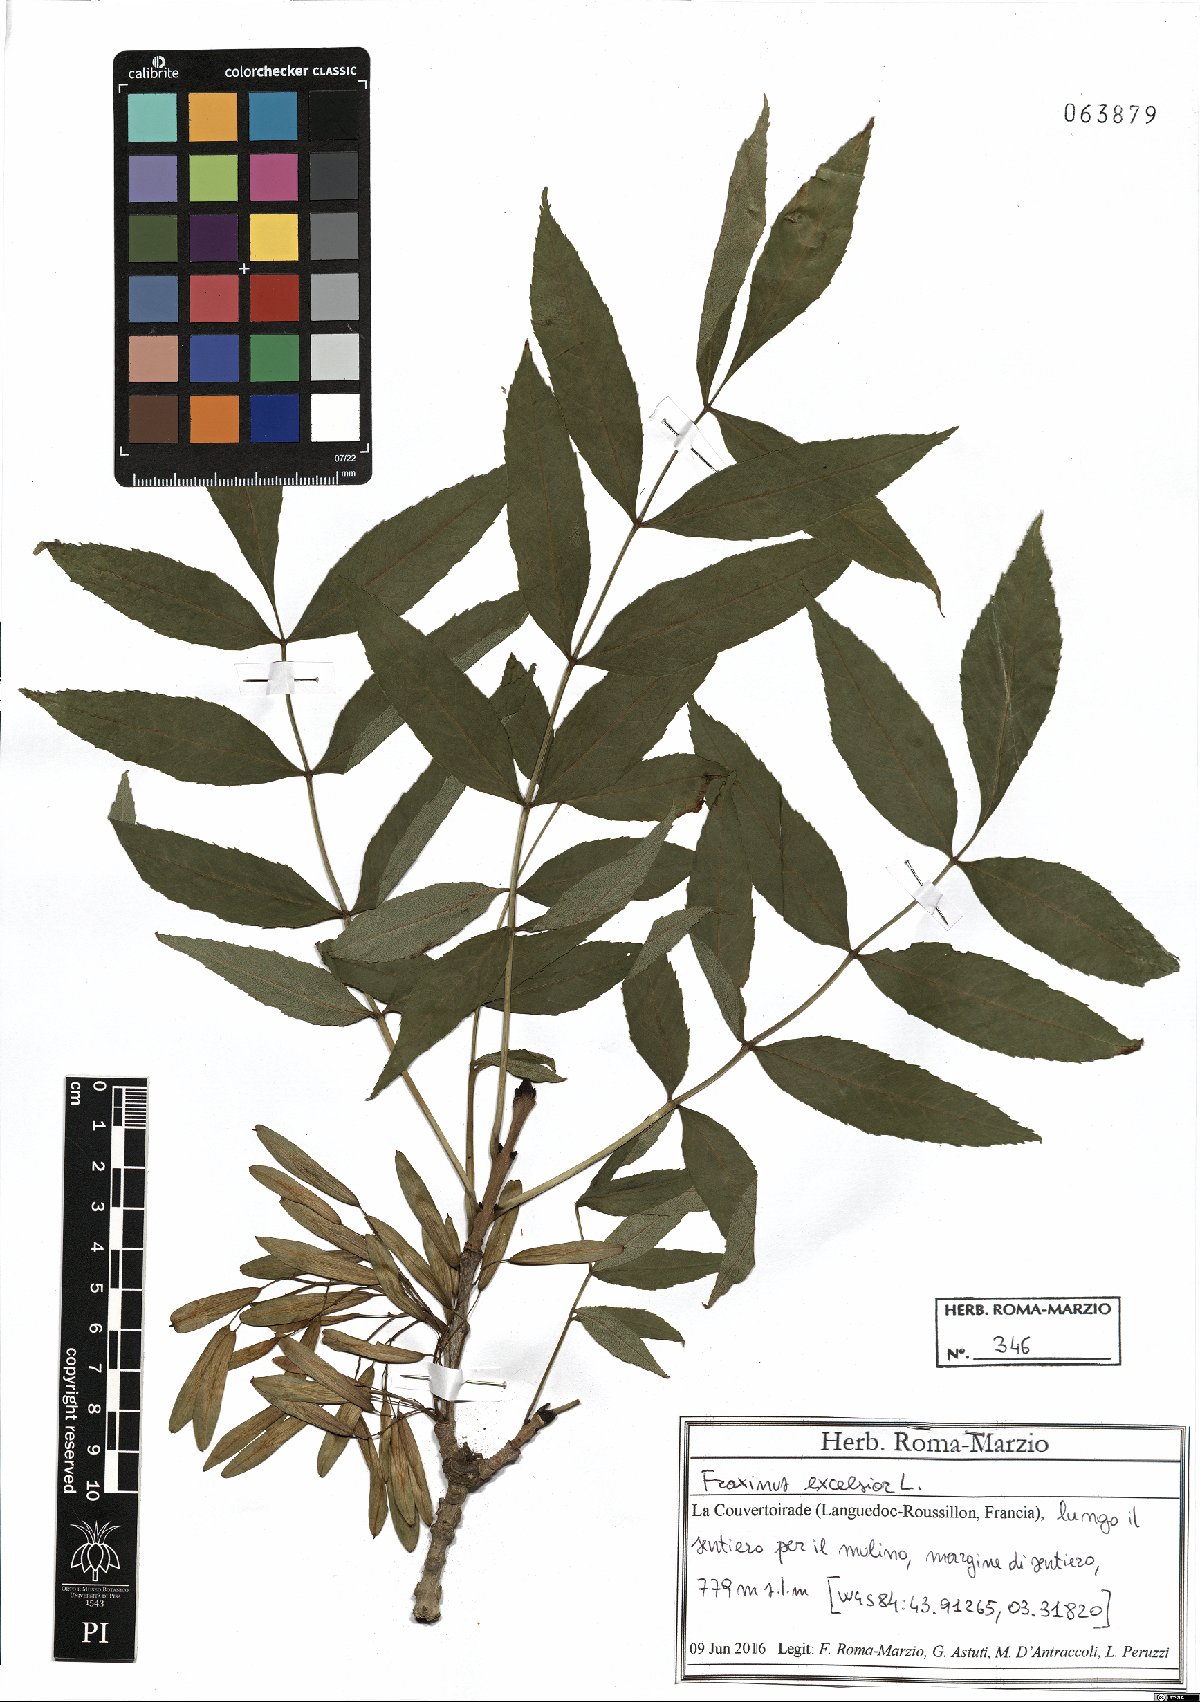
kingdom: Plantae
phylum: Tracheophyta
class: Magnoliopsida
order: Lamiales
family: Oleaceae
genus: Fraxinus
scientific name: Fraxinus excelsior
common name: European ash
